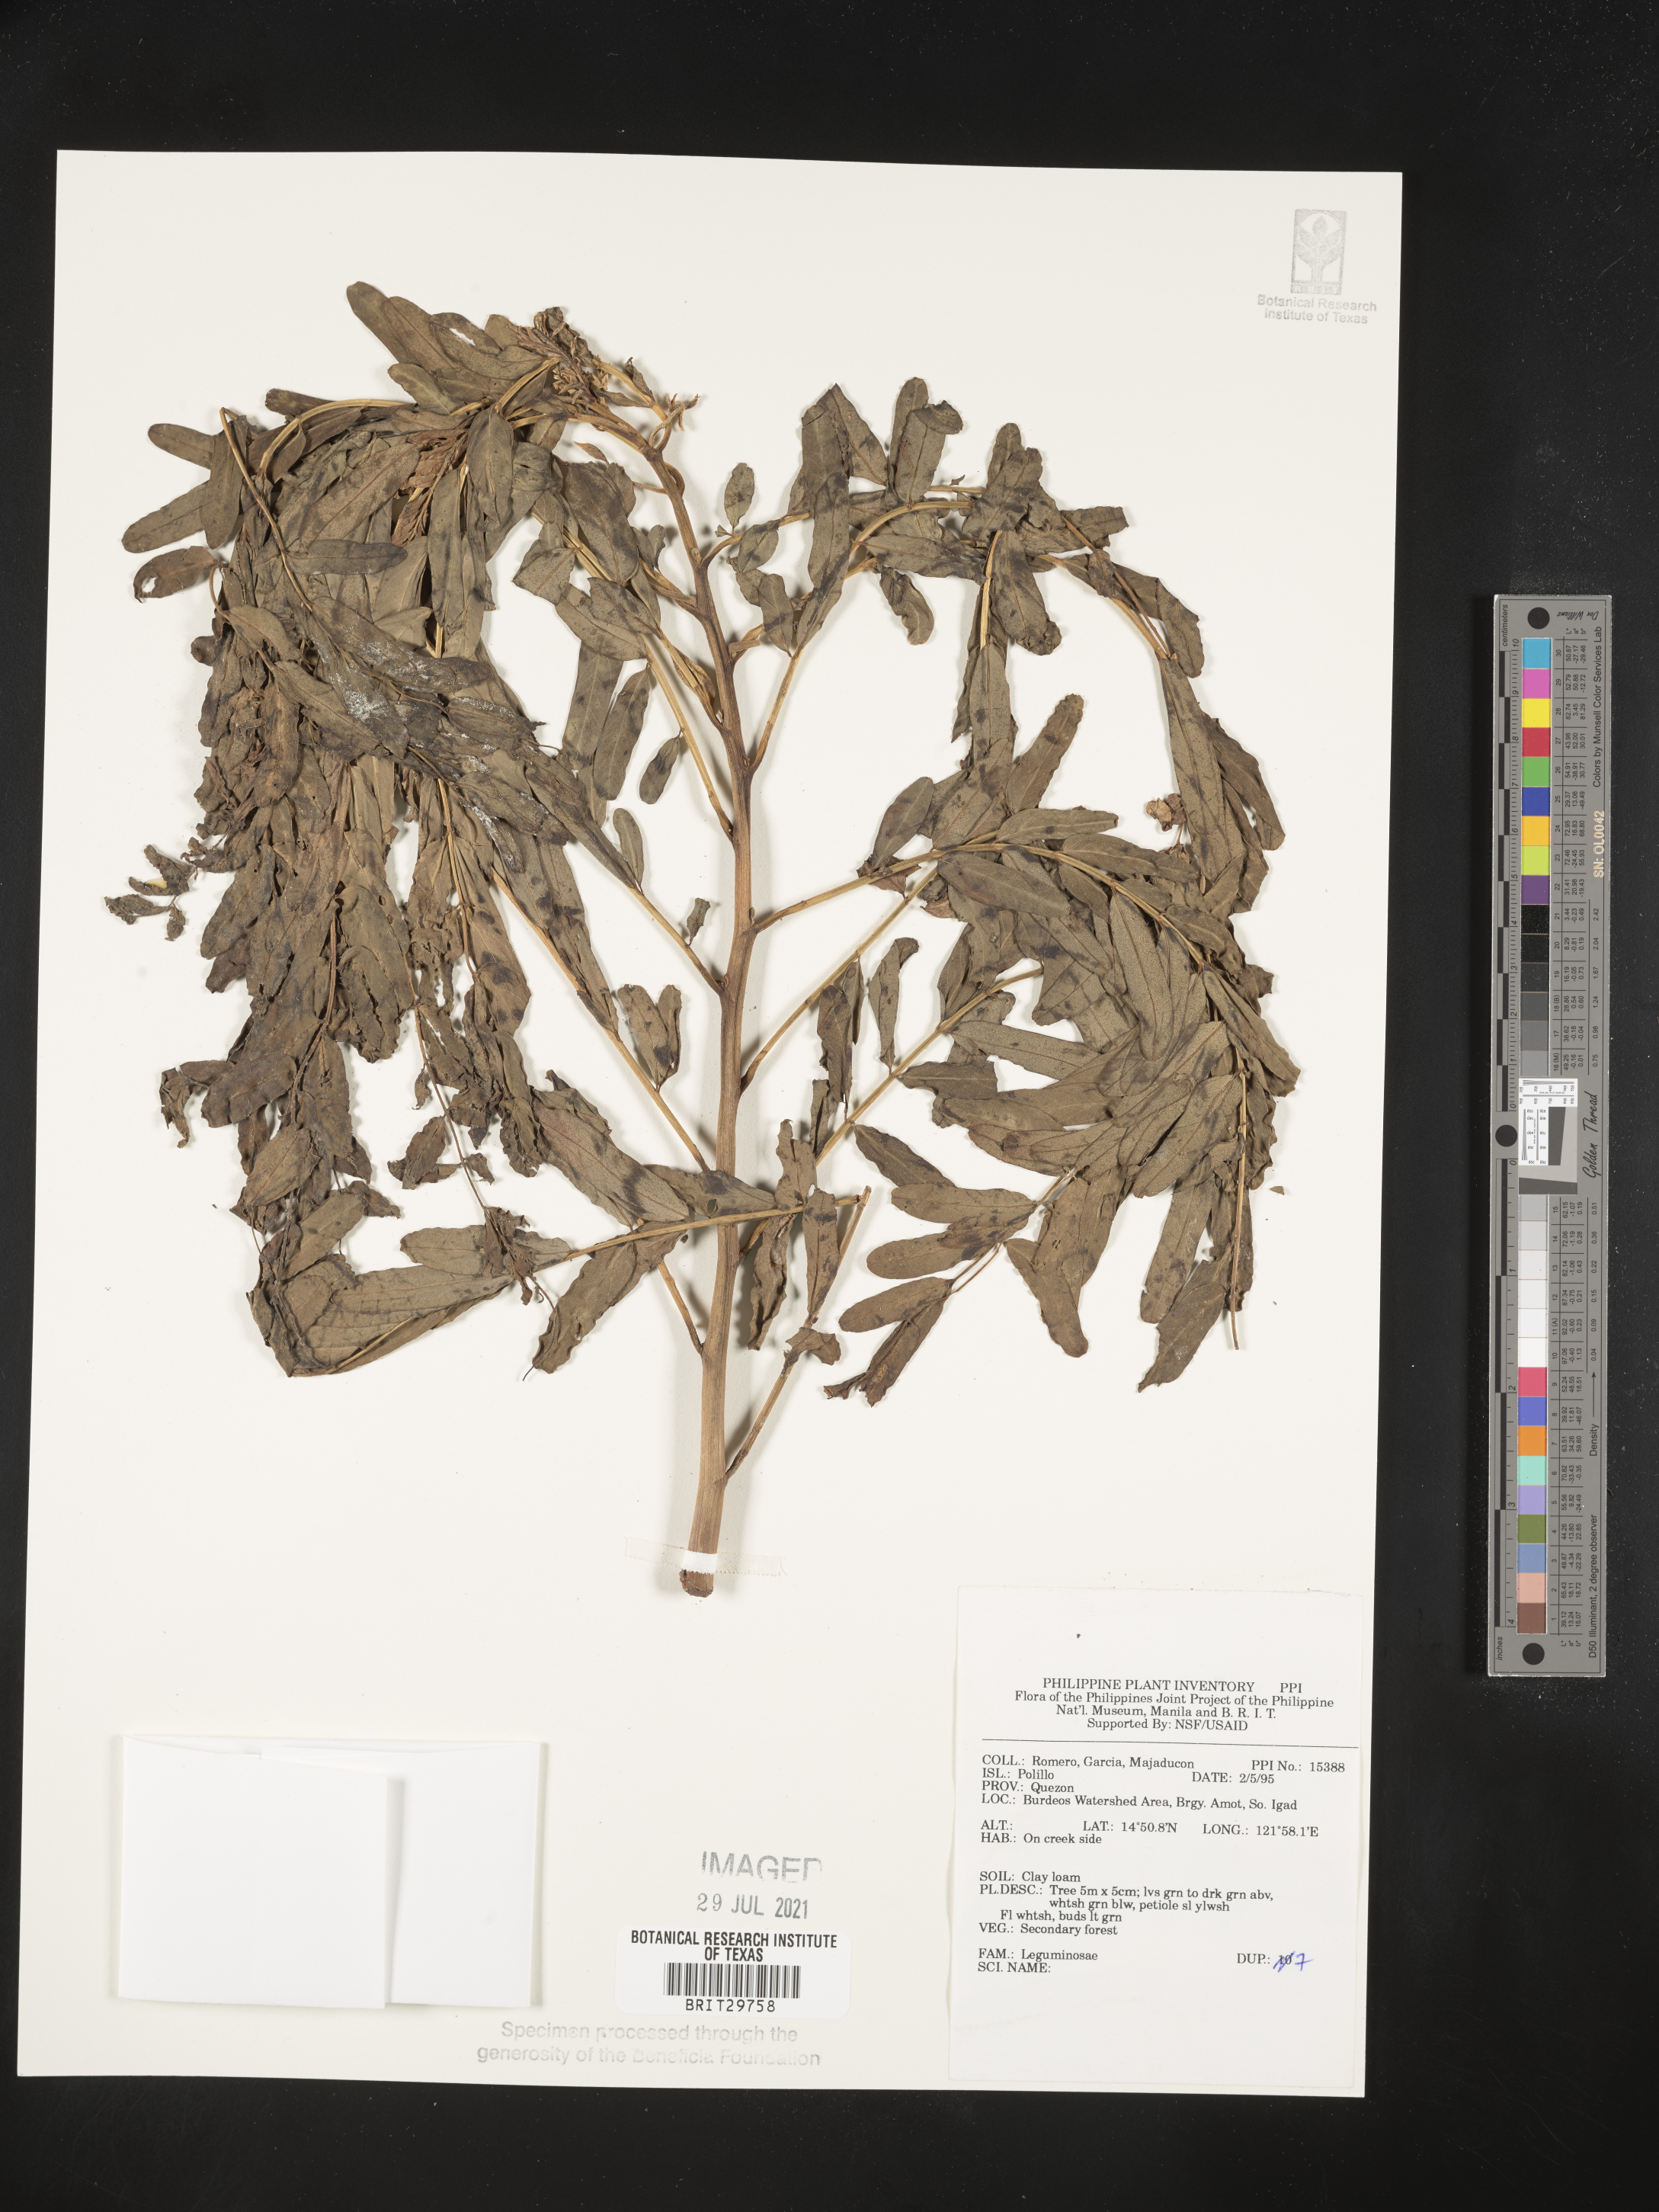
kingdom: Plantae
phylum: Tracheophyta
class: Magnoliopsida
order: Fabales
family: Fabaceae
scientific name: Fabaceae
